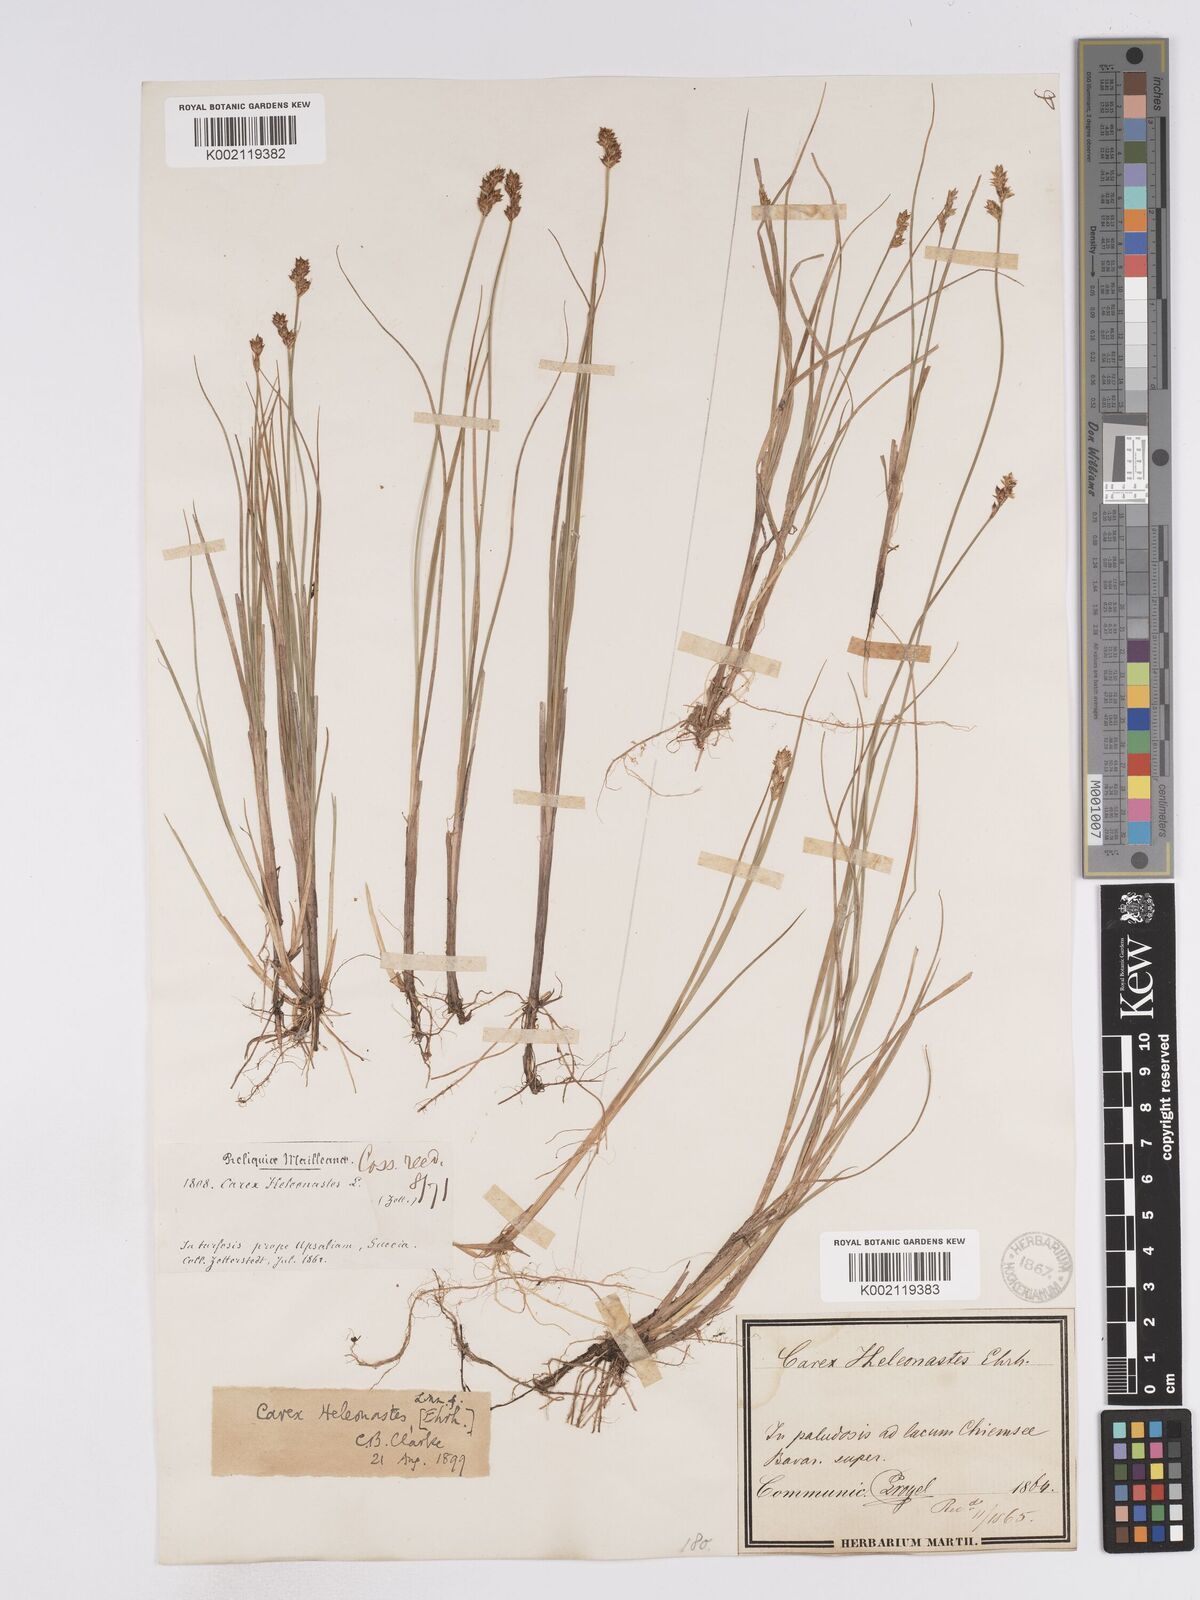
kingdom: Plantae
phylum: Tracheophyta
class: Liliopsida
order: Poales
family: Cyperaceae
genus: Carex
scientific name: Carex heleonastes
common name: Hudson bay sedge
